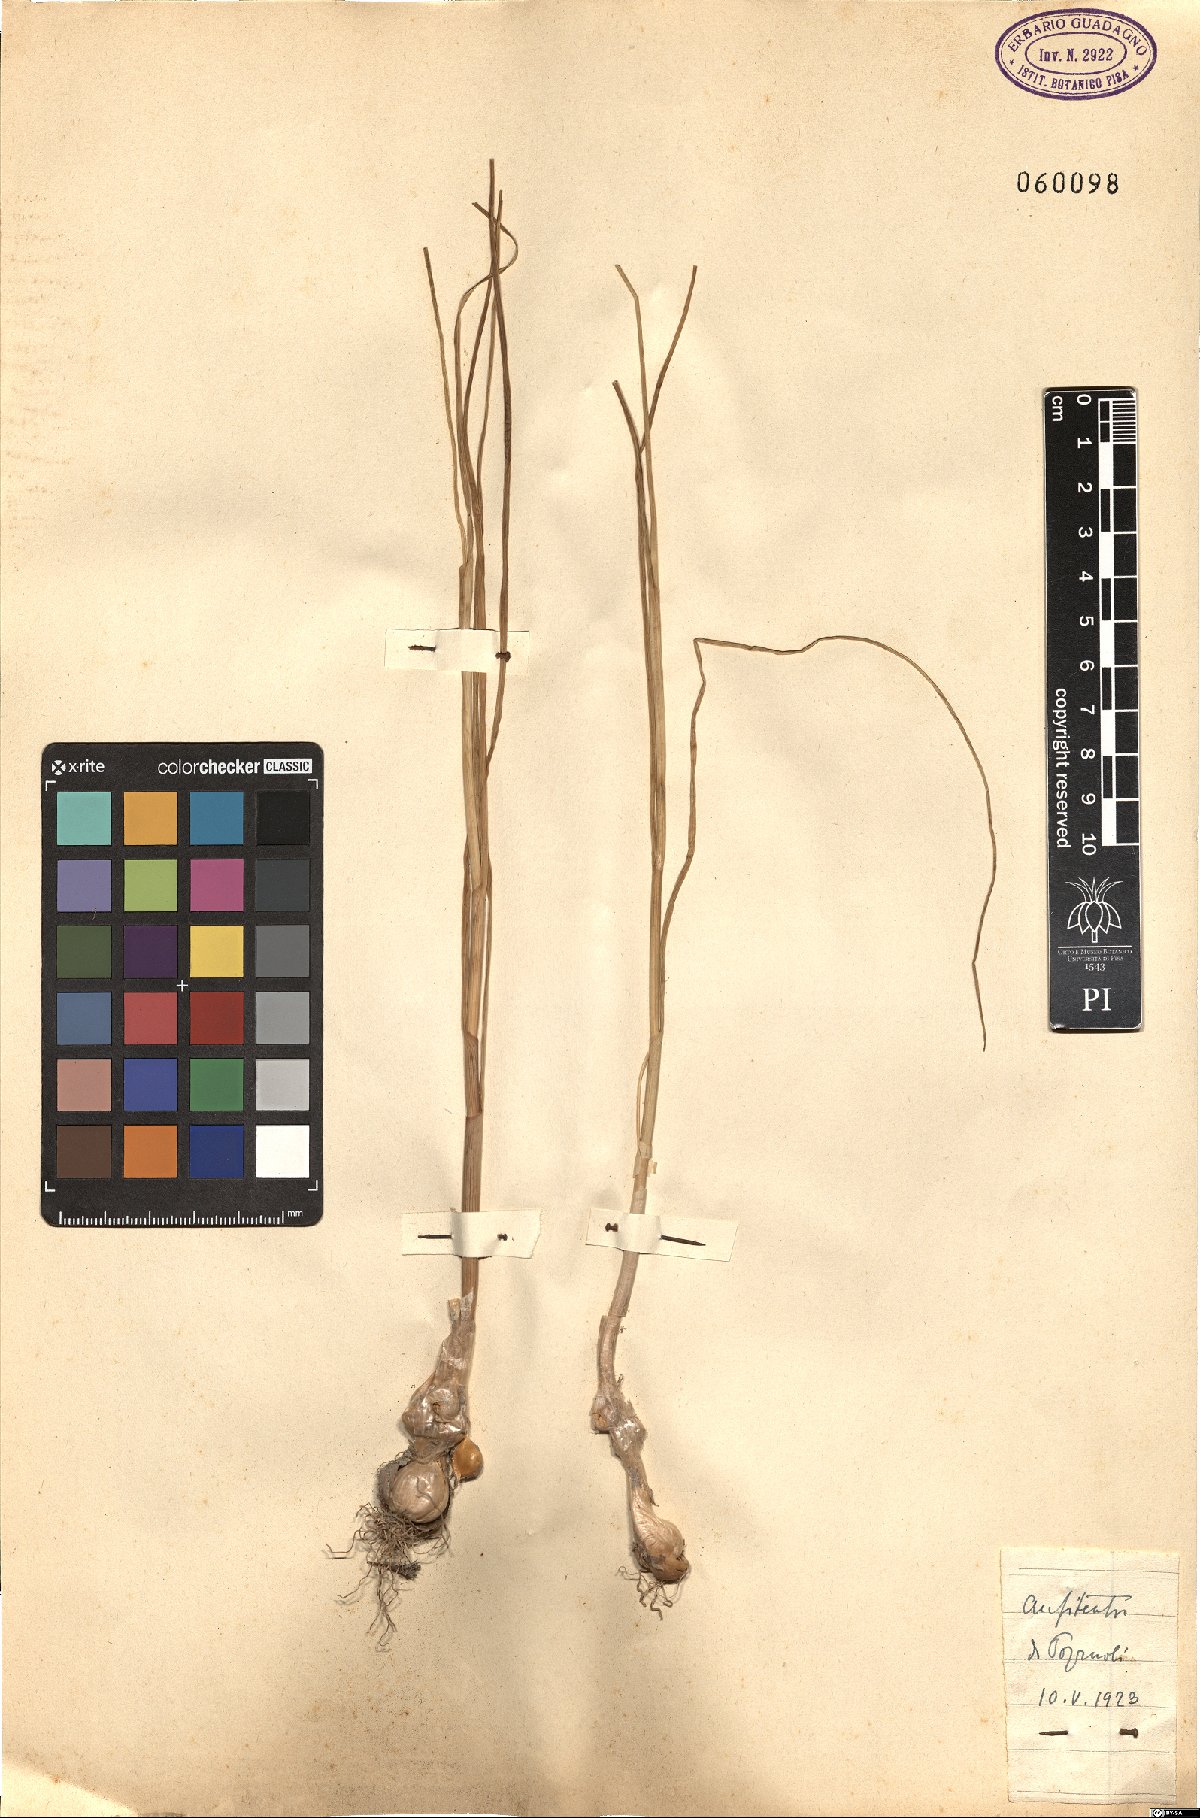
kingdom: Plantae
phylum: Tracheophyta
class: Liliopsida
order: Asparagales
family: Amaryllidaceae
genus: Allium
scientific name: Allium roseum
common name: Rosy garlic
